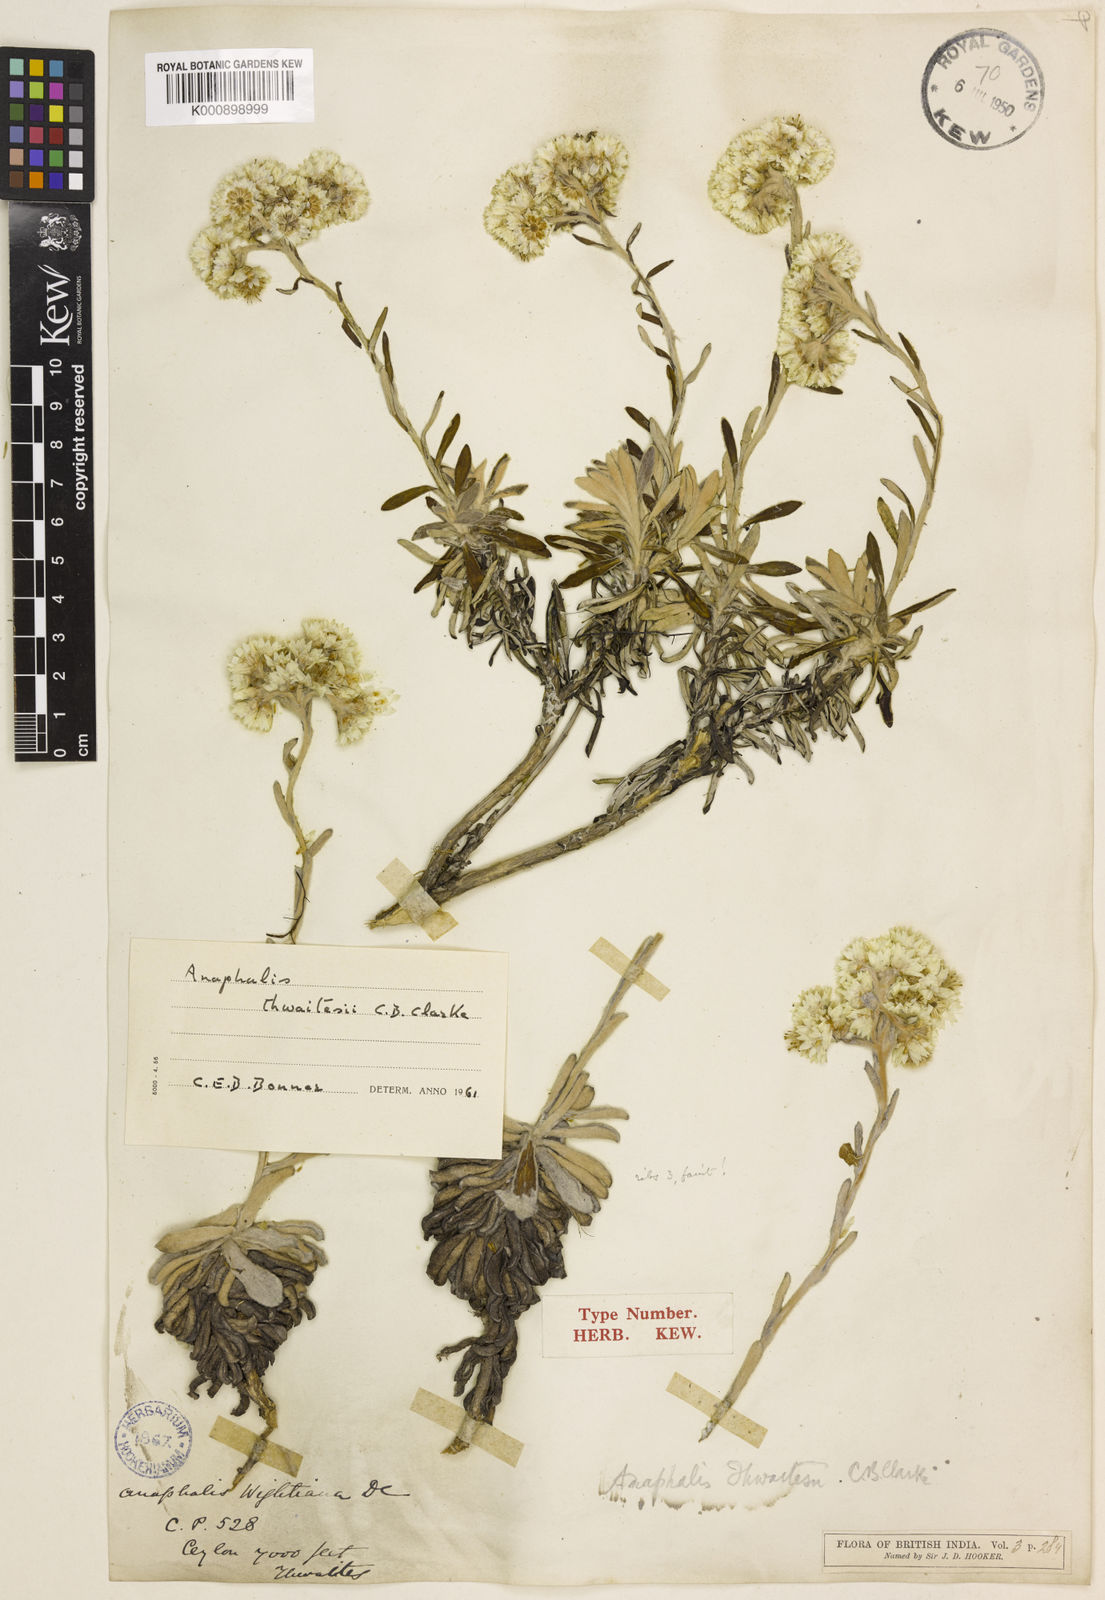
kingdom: Plantae
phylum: Tracheophyta
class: Magnoliopsida
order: Asterales
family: Asteraceae
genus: Anaphalis
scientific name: Anaphalis thwaitesii
